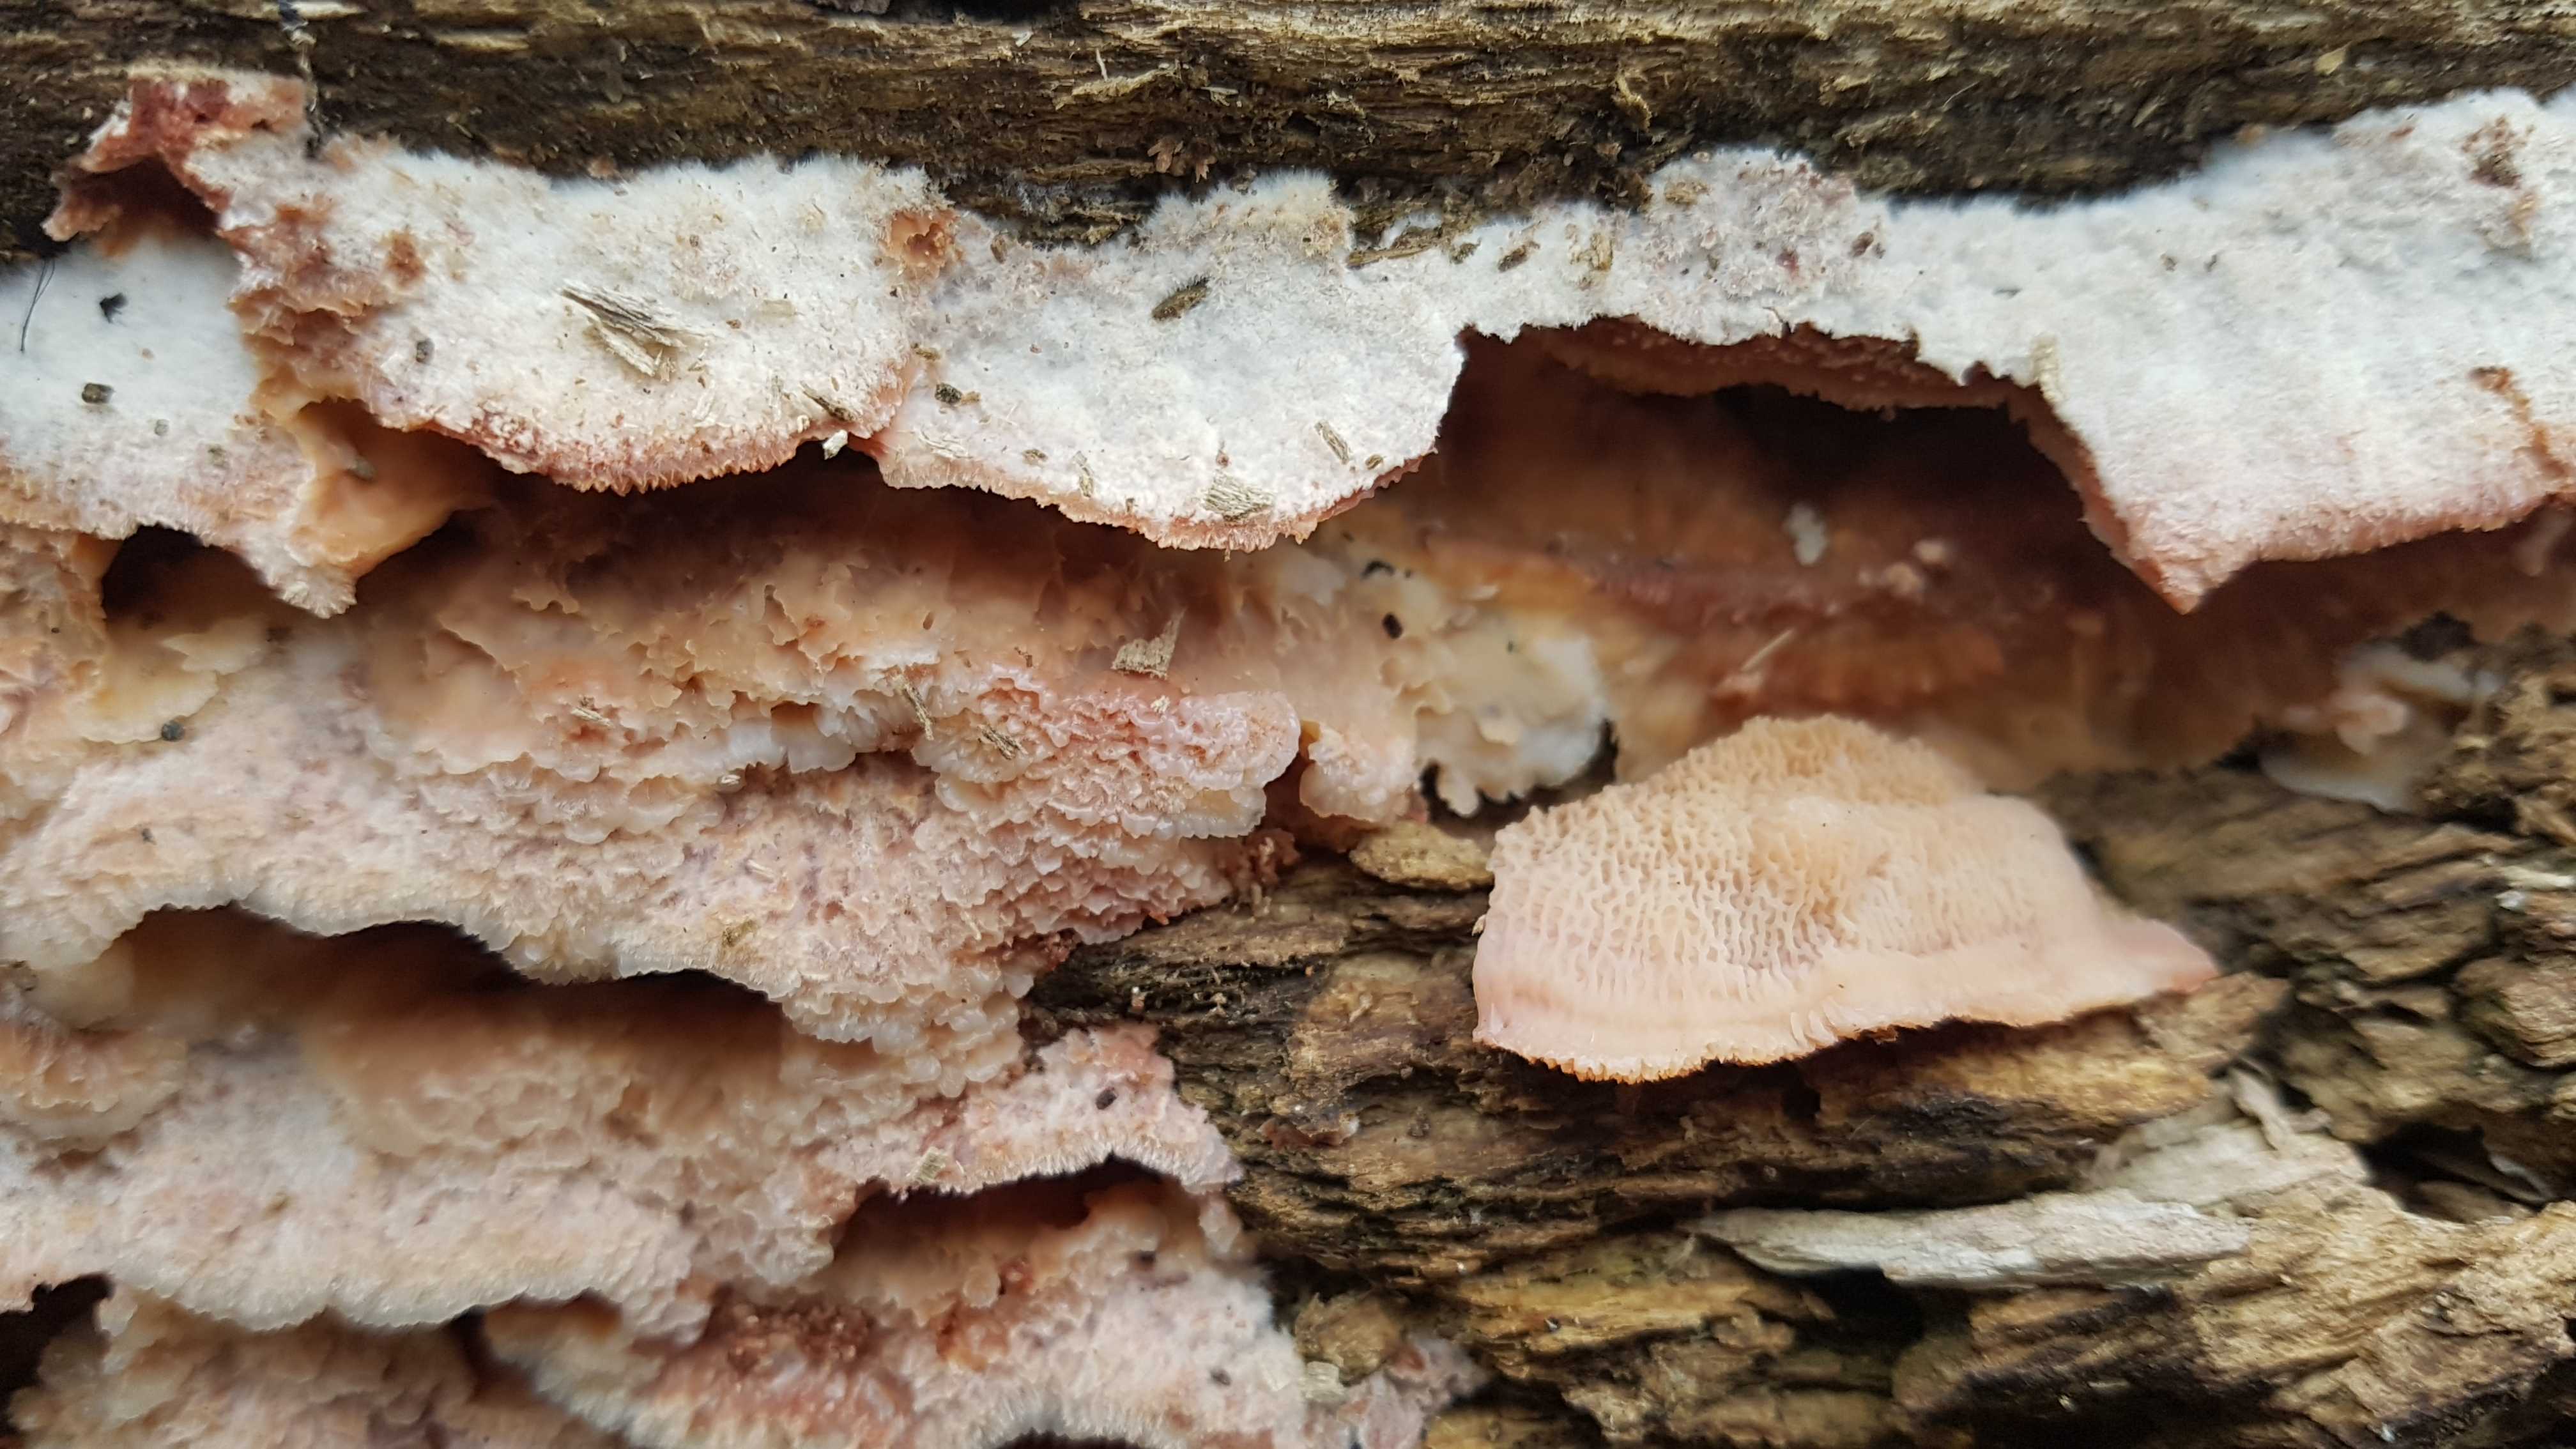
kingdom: Fungi
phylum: Basidiomycota
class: Agaricomycetes
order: Polyporales
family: Meruliaceae
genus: Phlebia
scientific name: Phlebia tremellosa
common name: bævrende åresvamp
